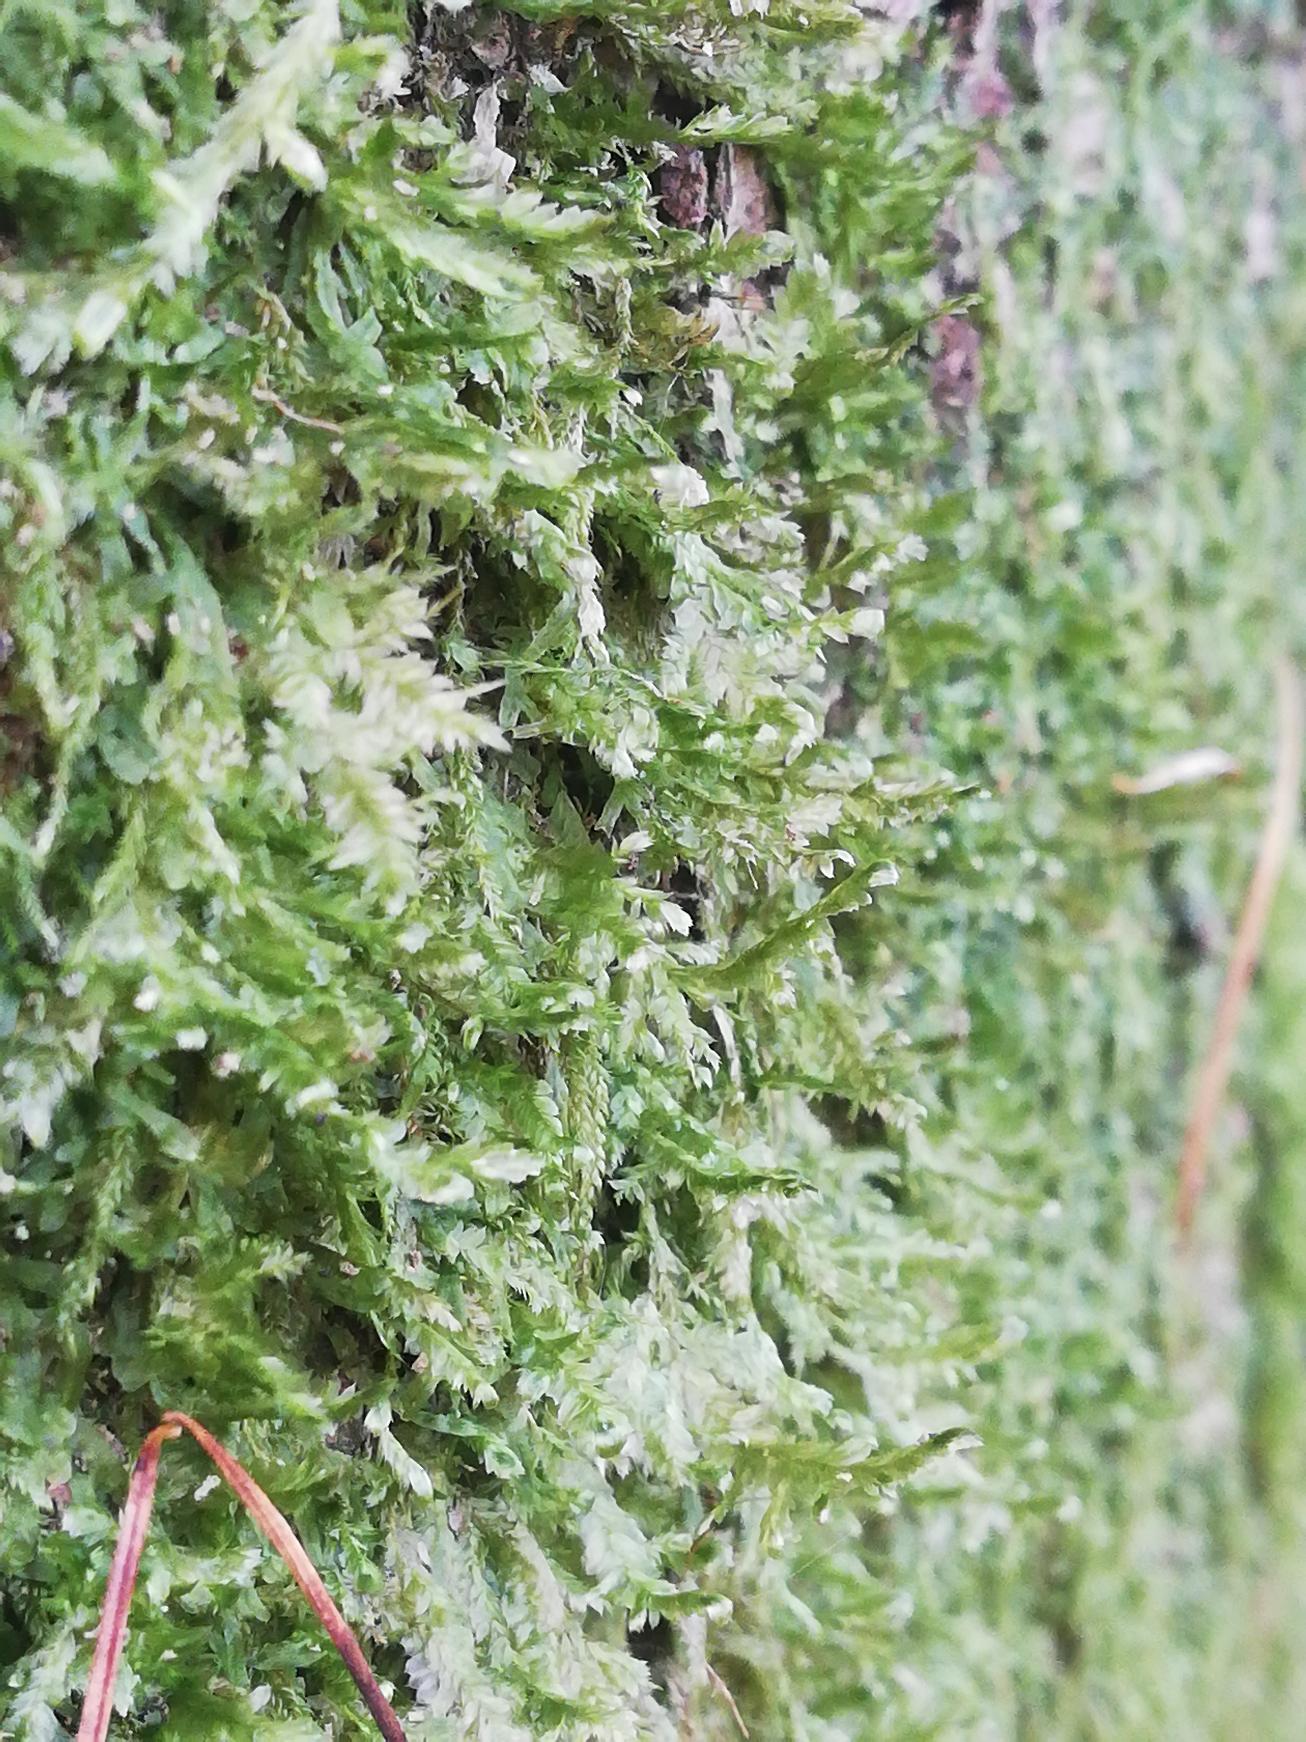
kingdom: Plantae
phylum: Bryophyta
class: Bryopsida
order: Hypnales
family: Neckeraceae
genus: Alleniella
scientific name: Alleniella complanata
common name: Almindelig fladmos
